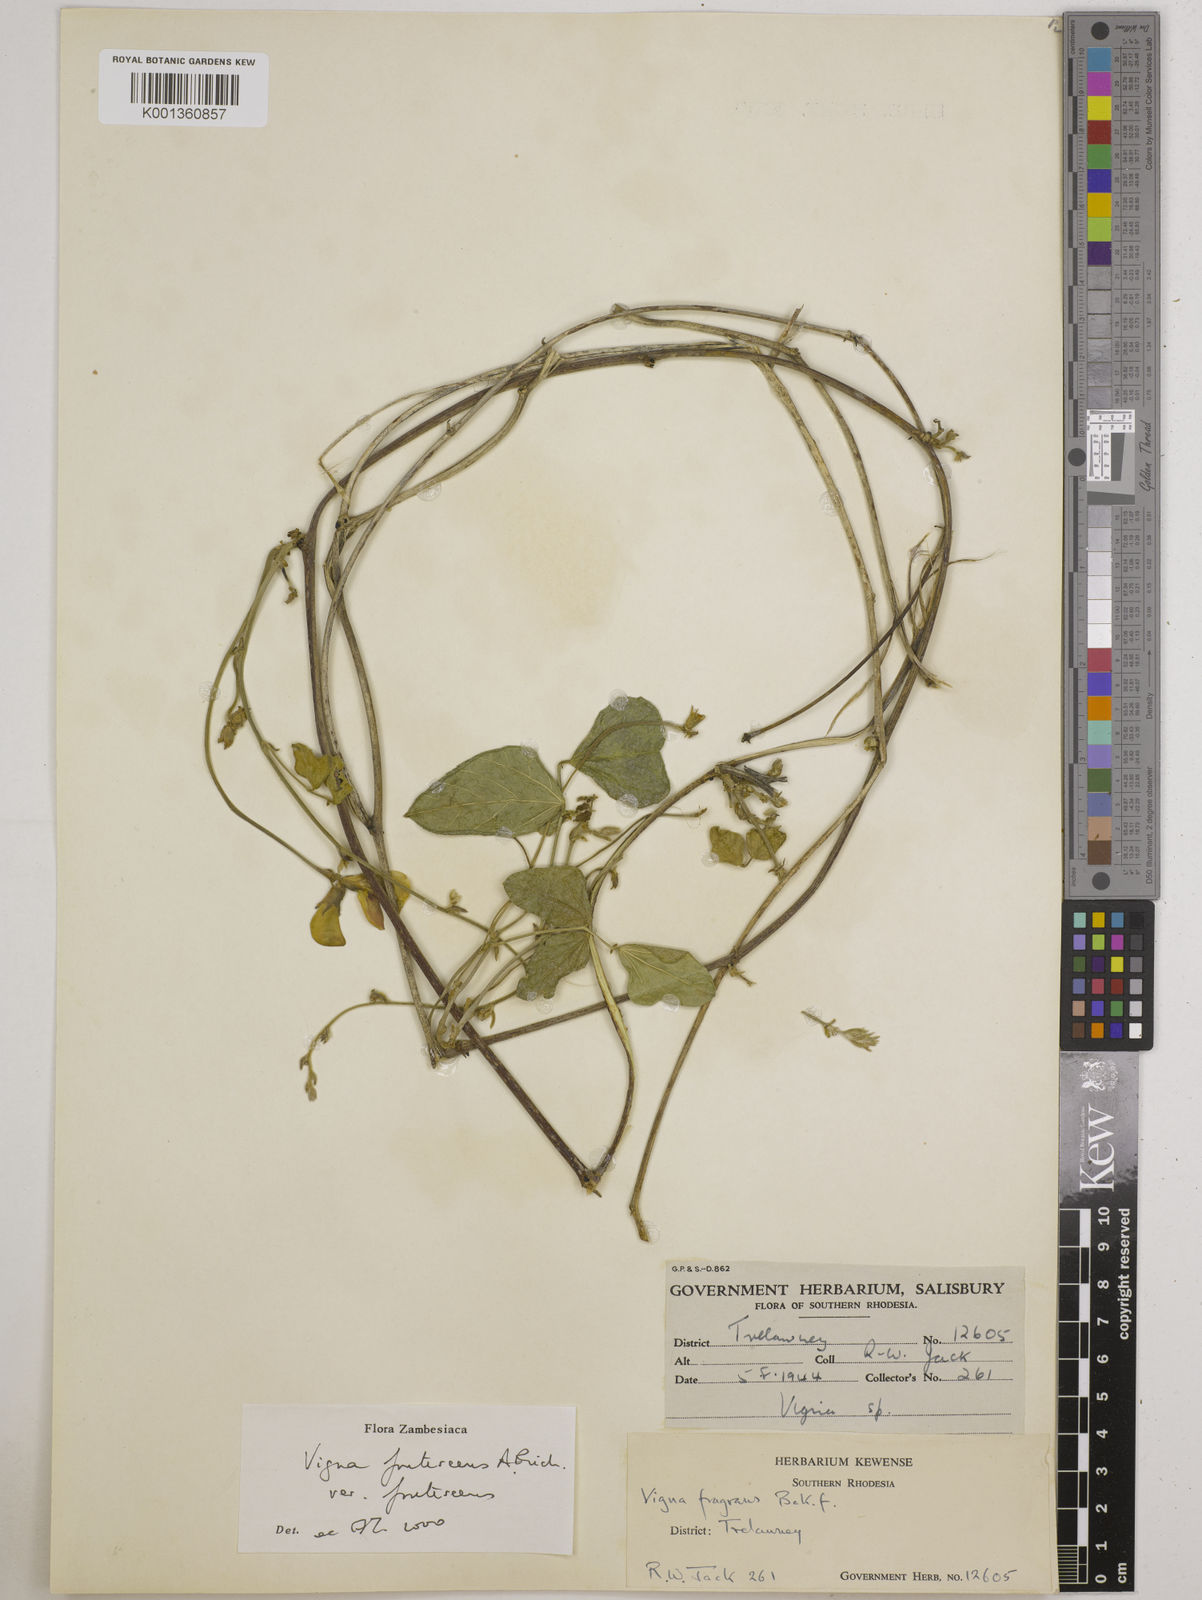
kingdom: Plantae
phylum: Tracheophyta
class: Magnoliopsida
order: Fabales
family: Fabaceae
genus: Vigna
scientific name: Vigna
